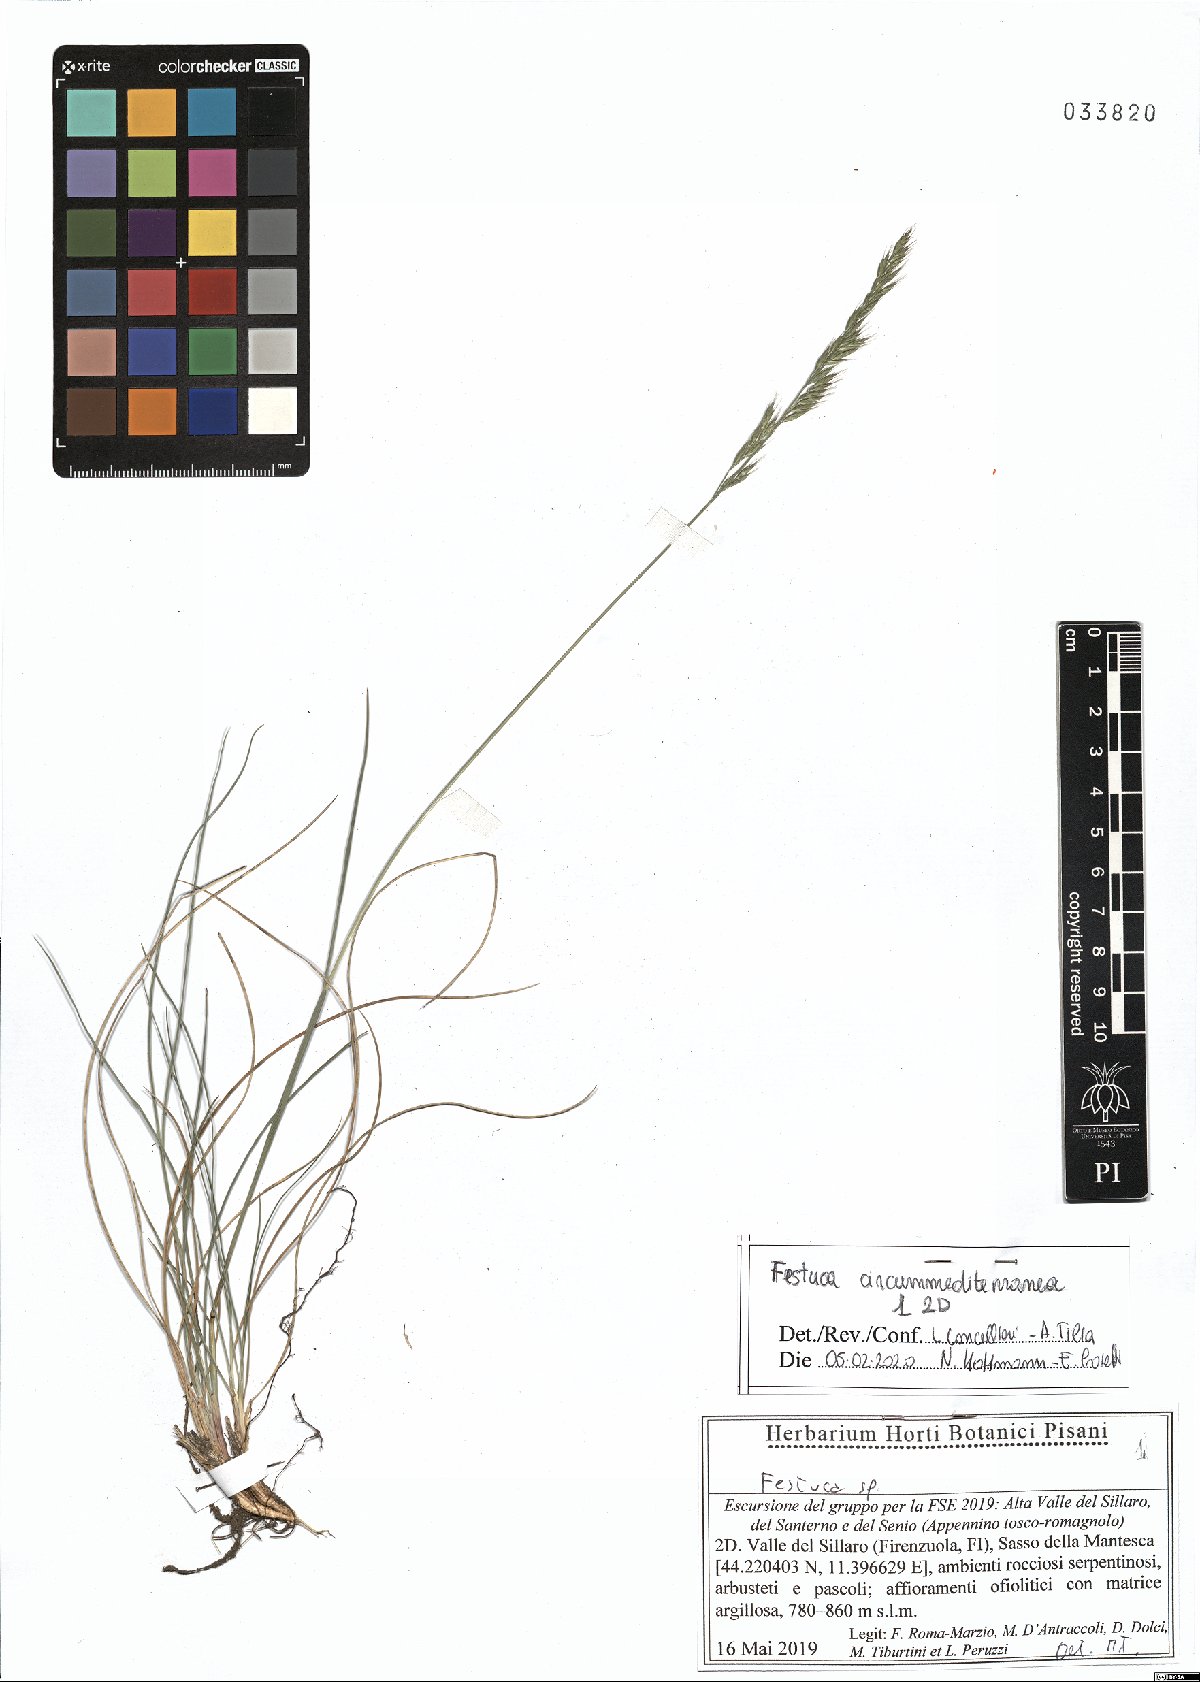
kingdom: Plantae
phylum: Tracheophyta
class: Liliopsida
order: Poales
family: Poaceae
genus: Festuca
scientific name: Festuca circummediterranea
